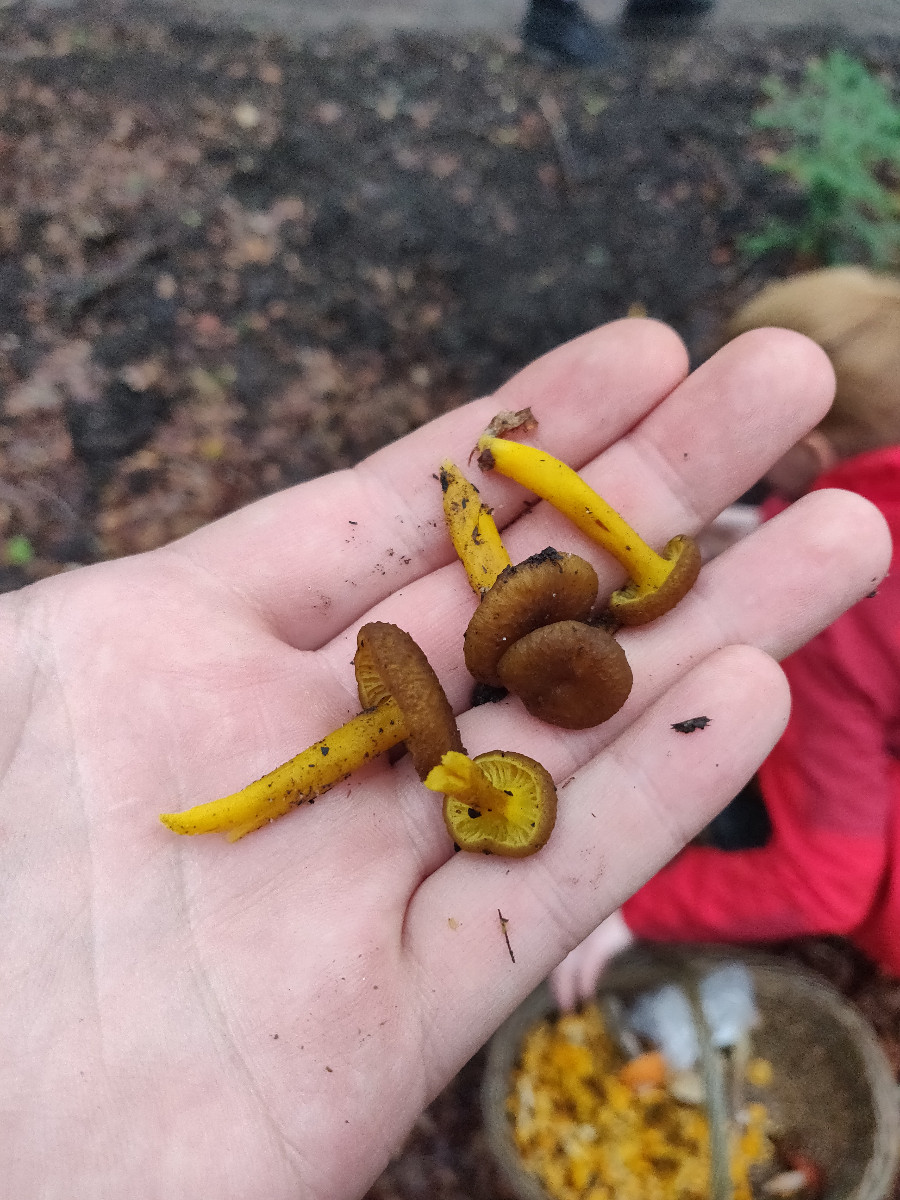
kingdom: Fungi
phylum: Basidiomycota
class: Agaricomycetes
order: Cantharellales
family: Hydnaceae
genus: Craterellus
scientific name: Craterellus tubaeformis
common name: tragt-kantarel
